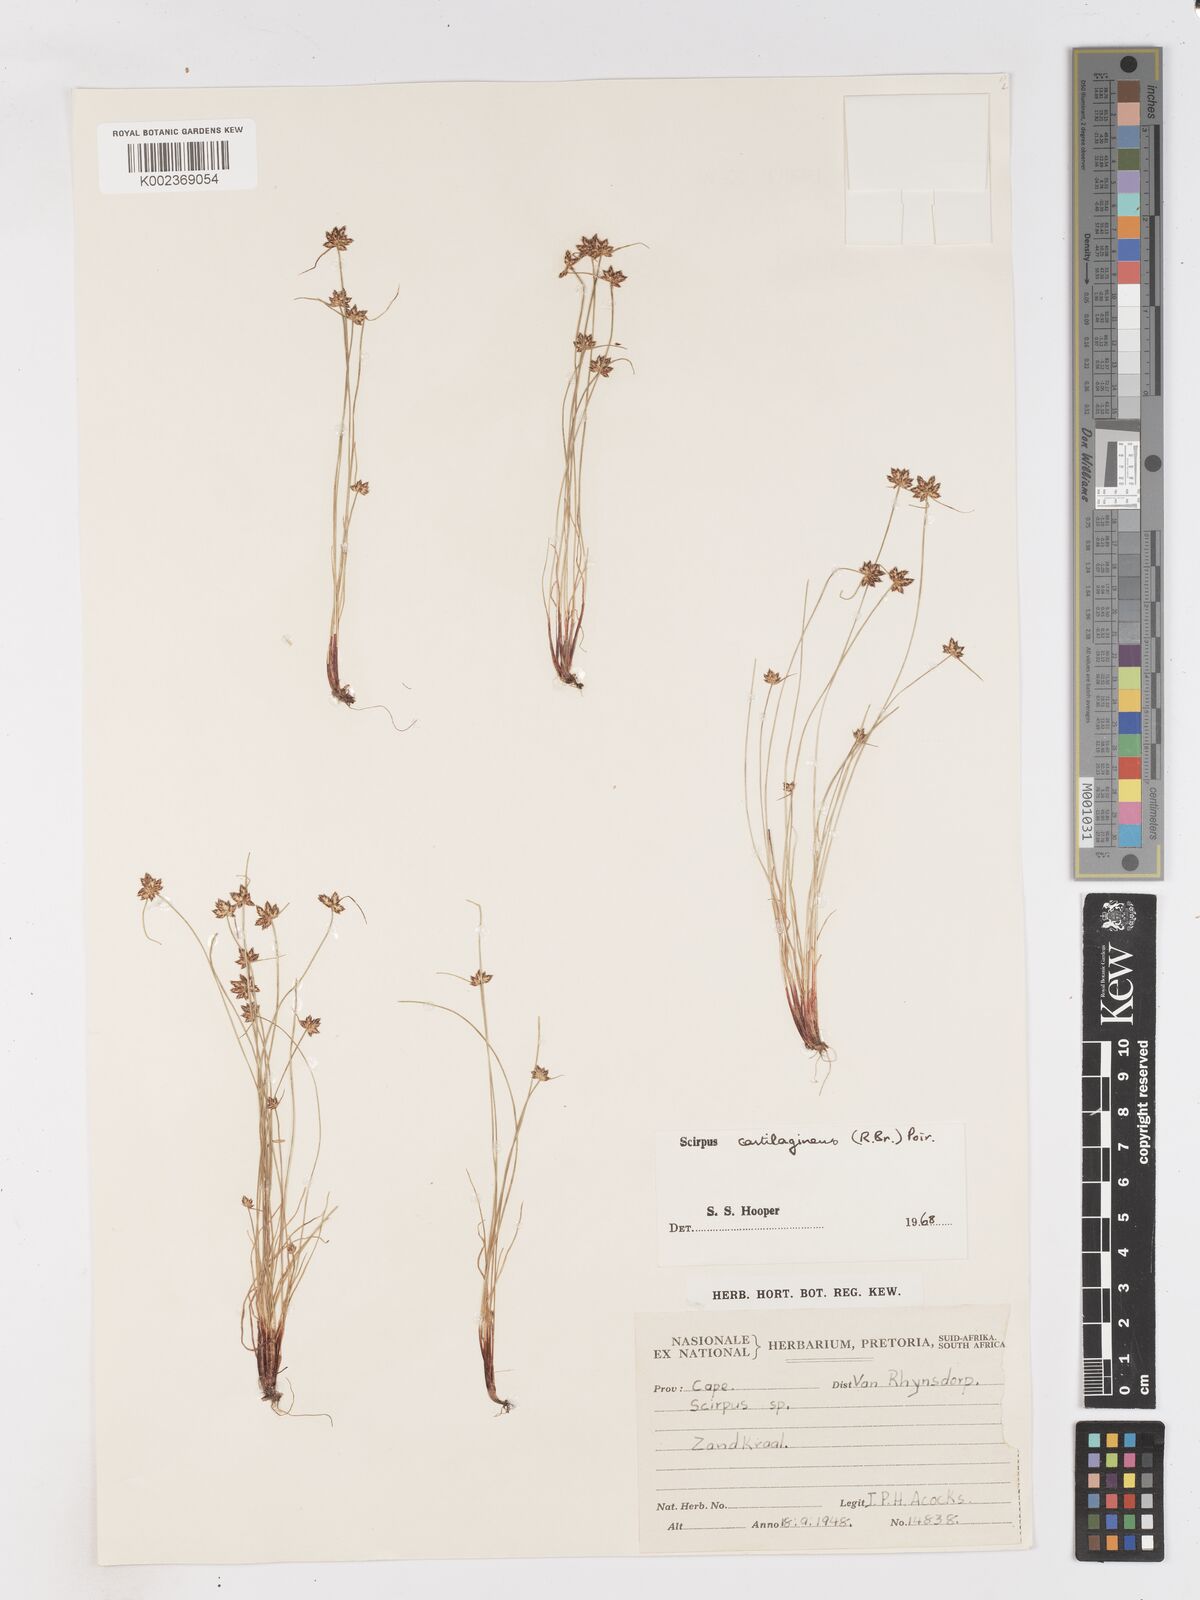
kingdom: Plantae
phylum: Tracheophyta
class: Liliopsida
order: Poales
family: Cyperaceae
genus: Isolepis
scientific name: Isolepis diabolica
